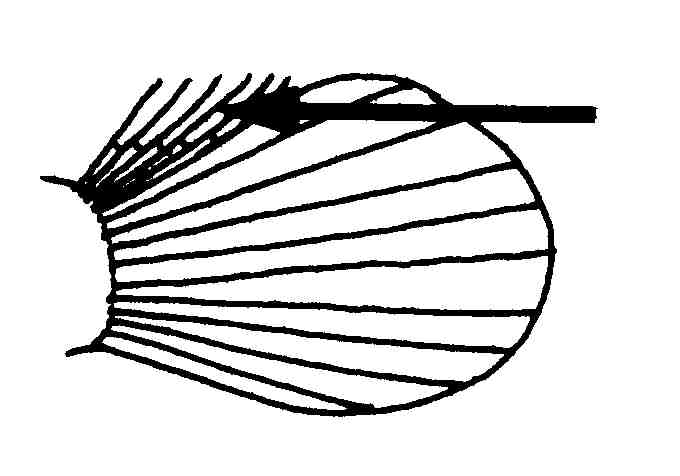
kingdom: Animalia
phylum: Chordata
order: Perciformes
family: Gobiidae
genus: Bathygobius
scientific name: Bathygobius
